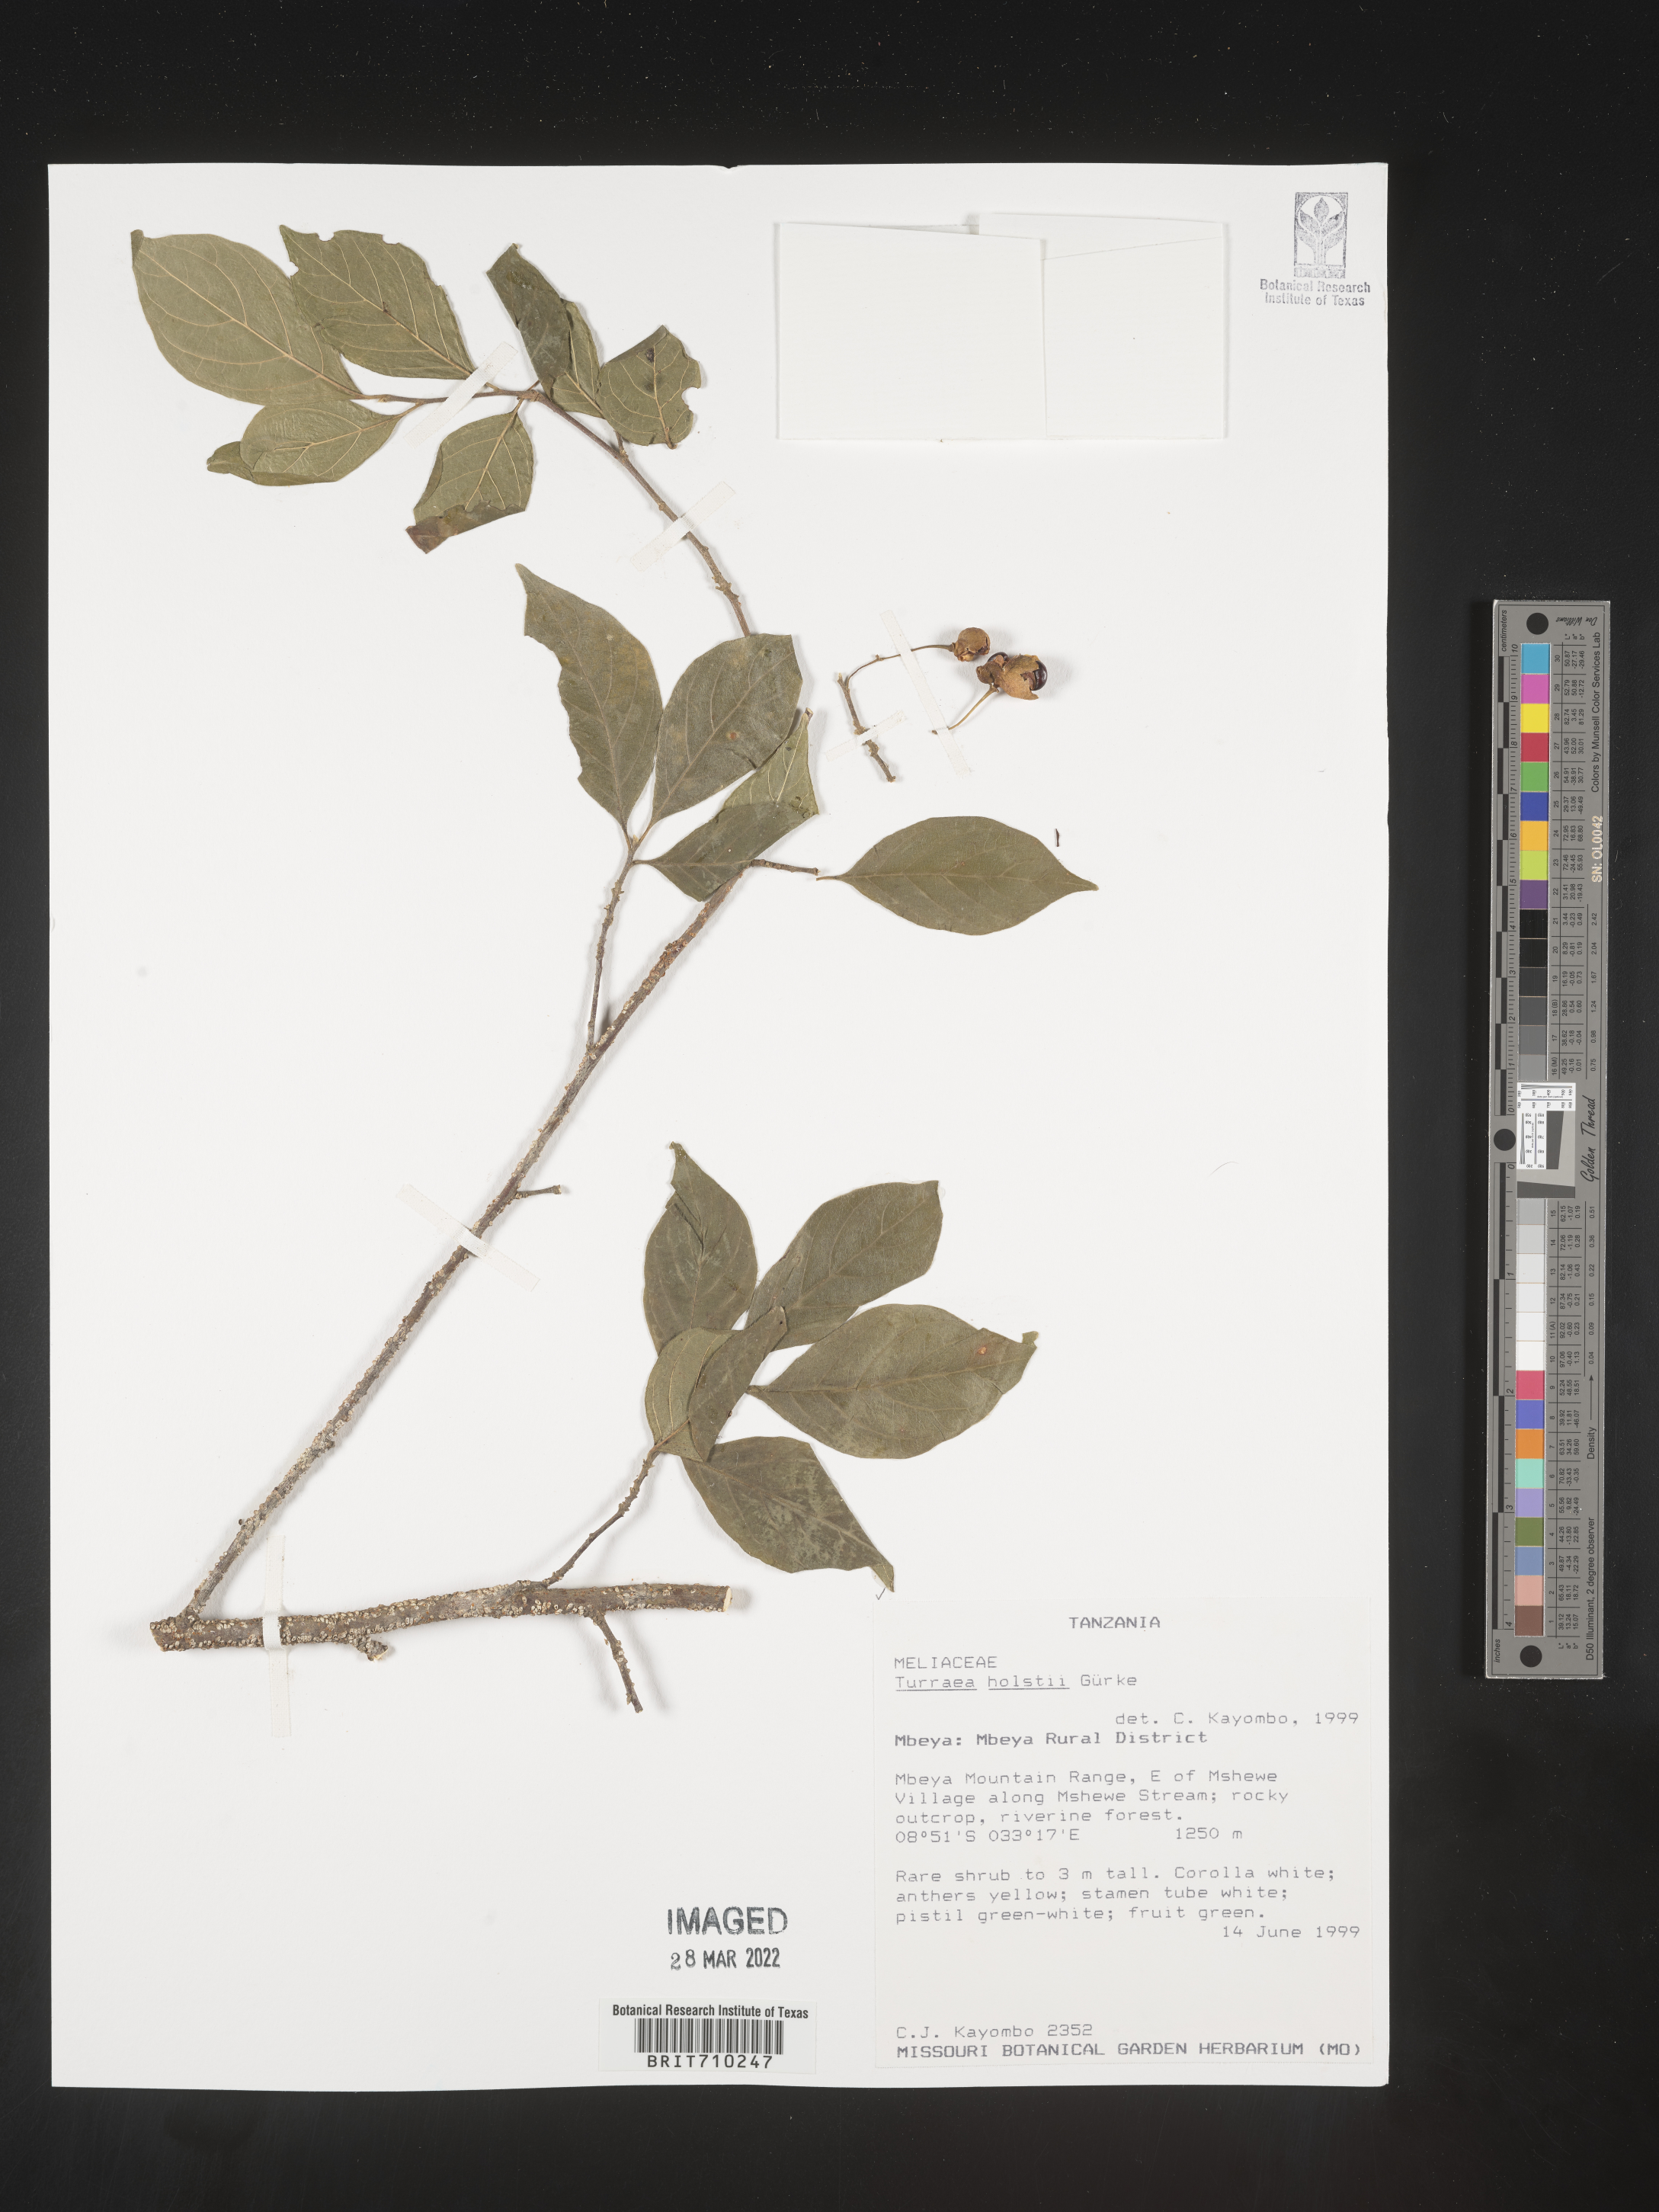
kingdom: Plantae
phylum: Tracheophyta
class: Magnoliopsida
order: Sapindales
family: Meliaceae
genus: Turraea
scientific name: Turraea
